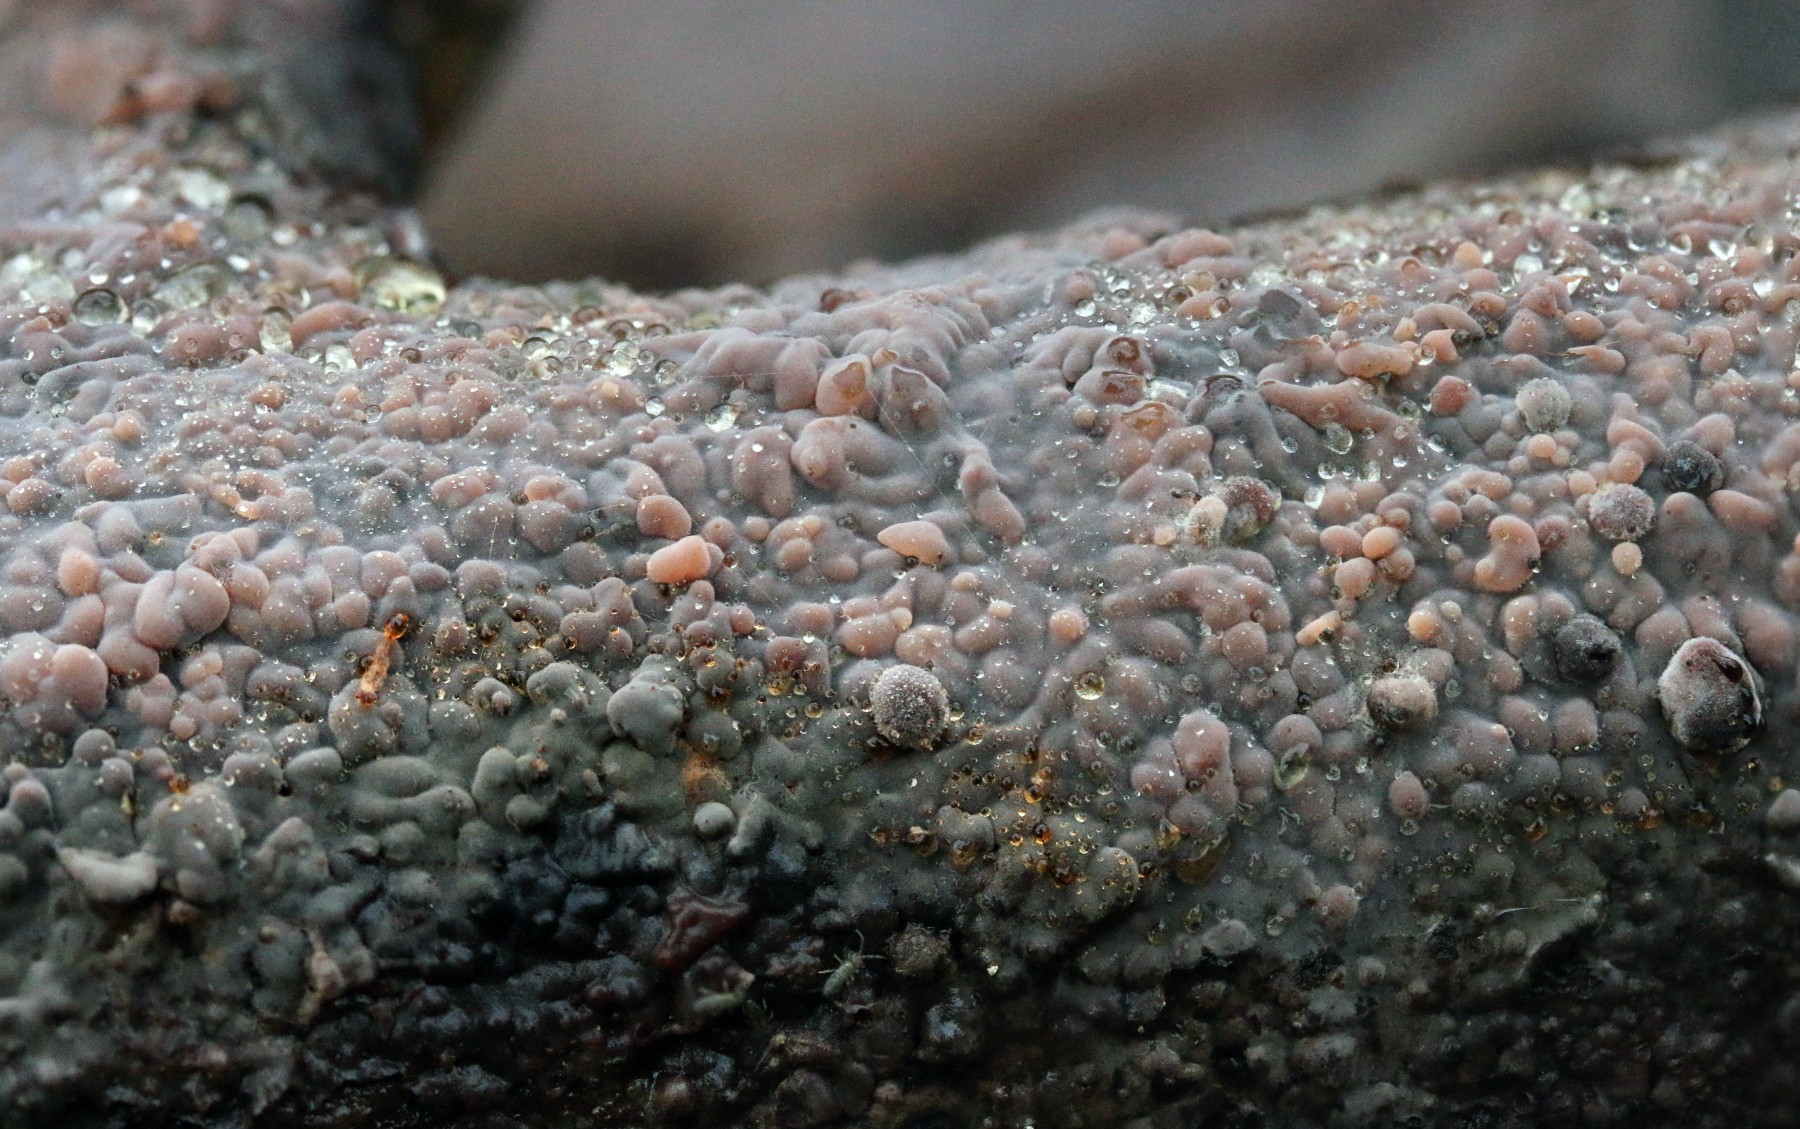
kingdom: Fungi
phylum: Basidiomycota
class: Agaricomycetes
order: Russulales
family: Peniophoraceae
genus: Peniophora
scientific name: Peniophora quercina
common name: ege-voksskind
